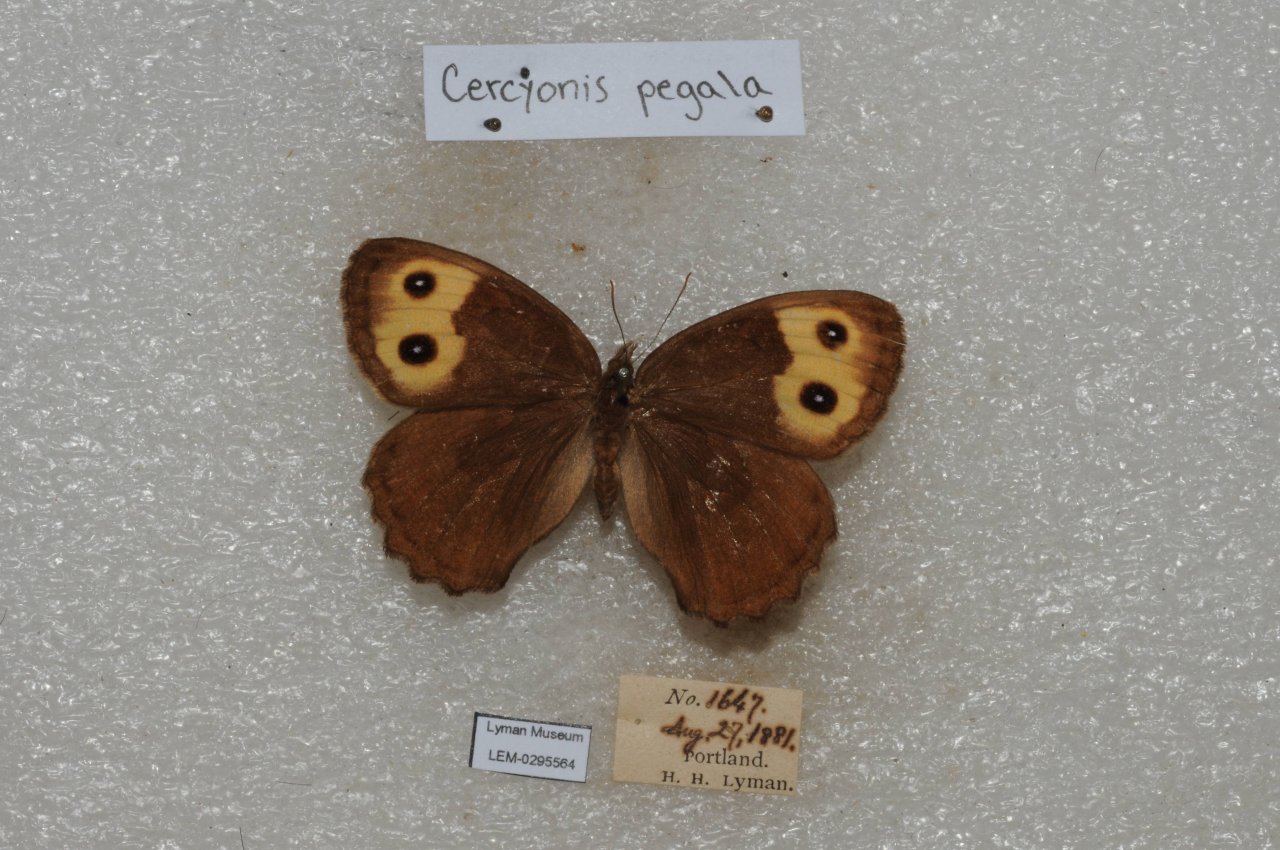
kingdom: Animalia
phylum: Arthropoda
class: Insecta
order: Lepidoptera
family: Nymphalidae
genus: Cercyonis
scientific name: Cercyonis pegala
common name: Common Wood-Nymph
